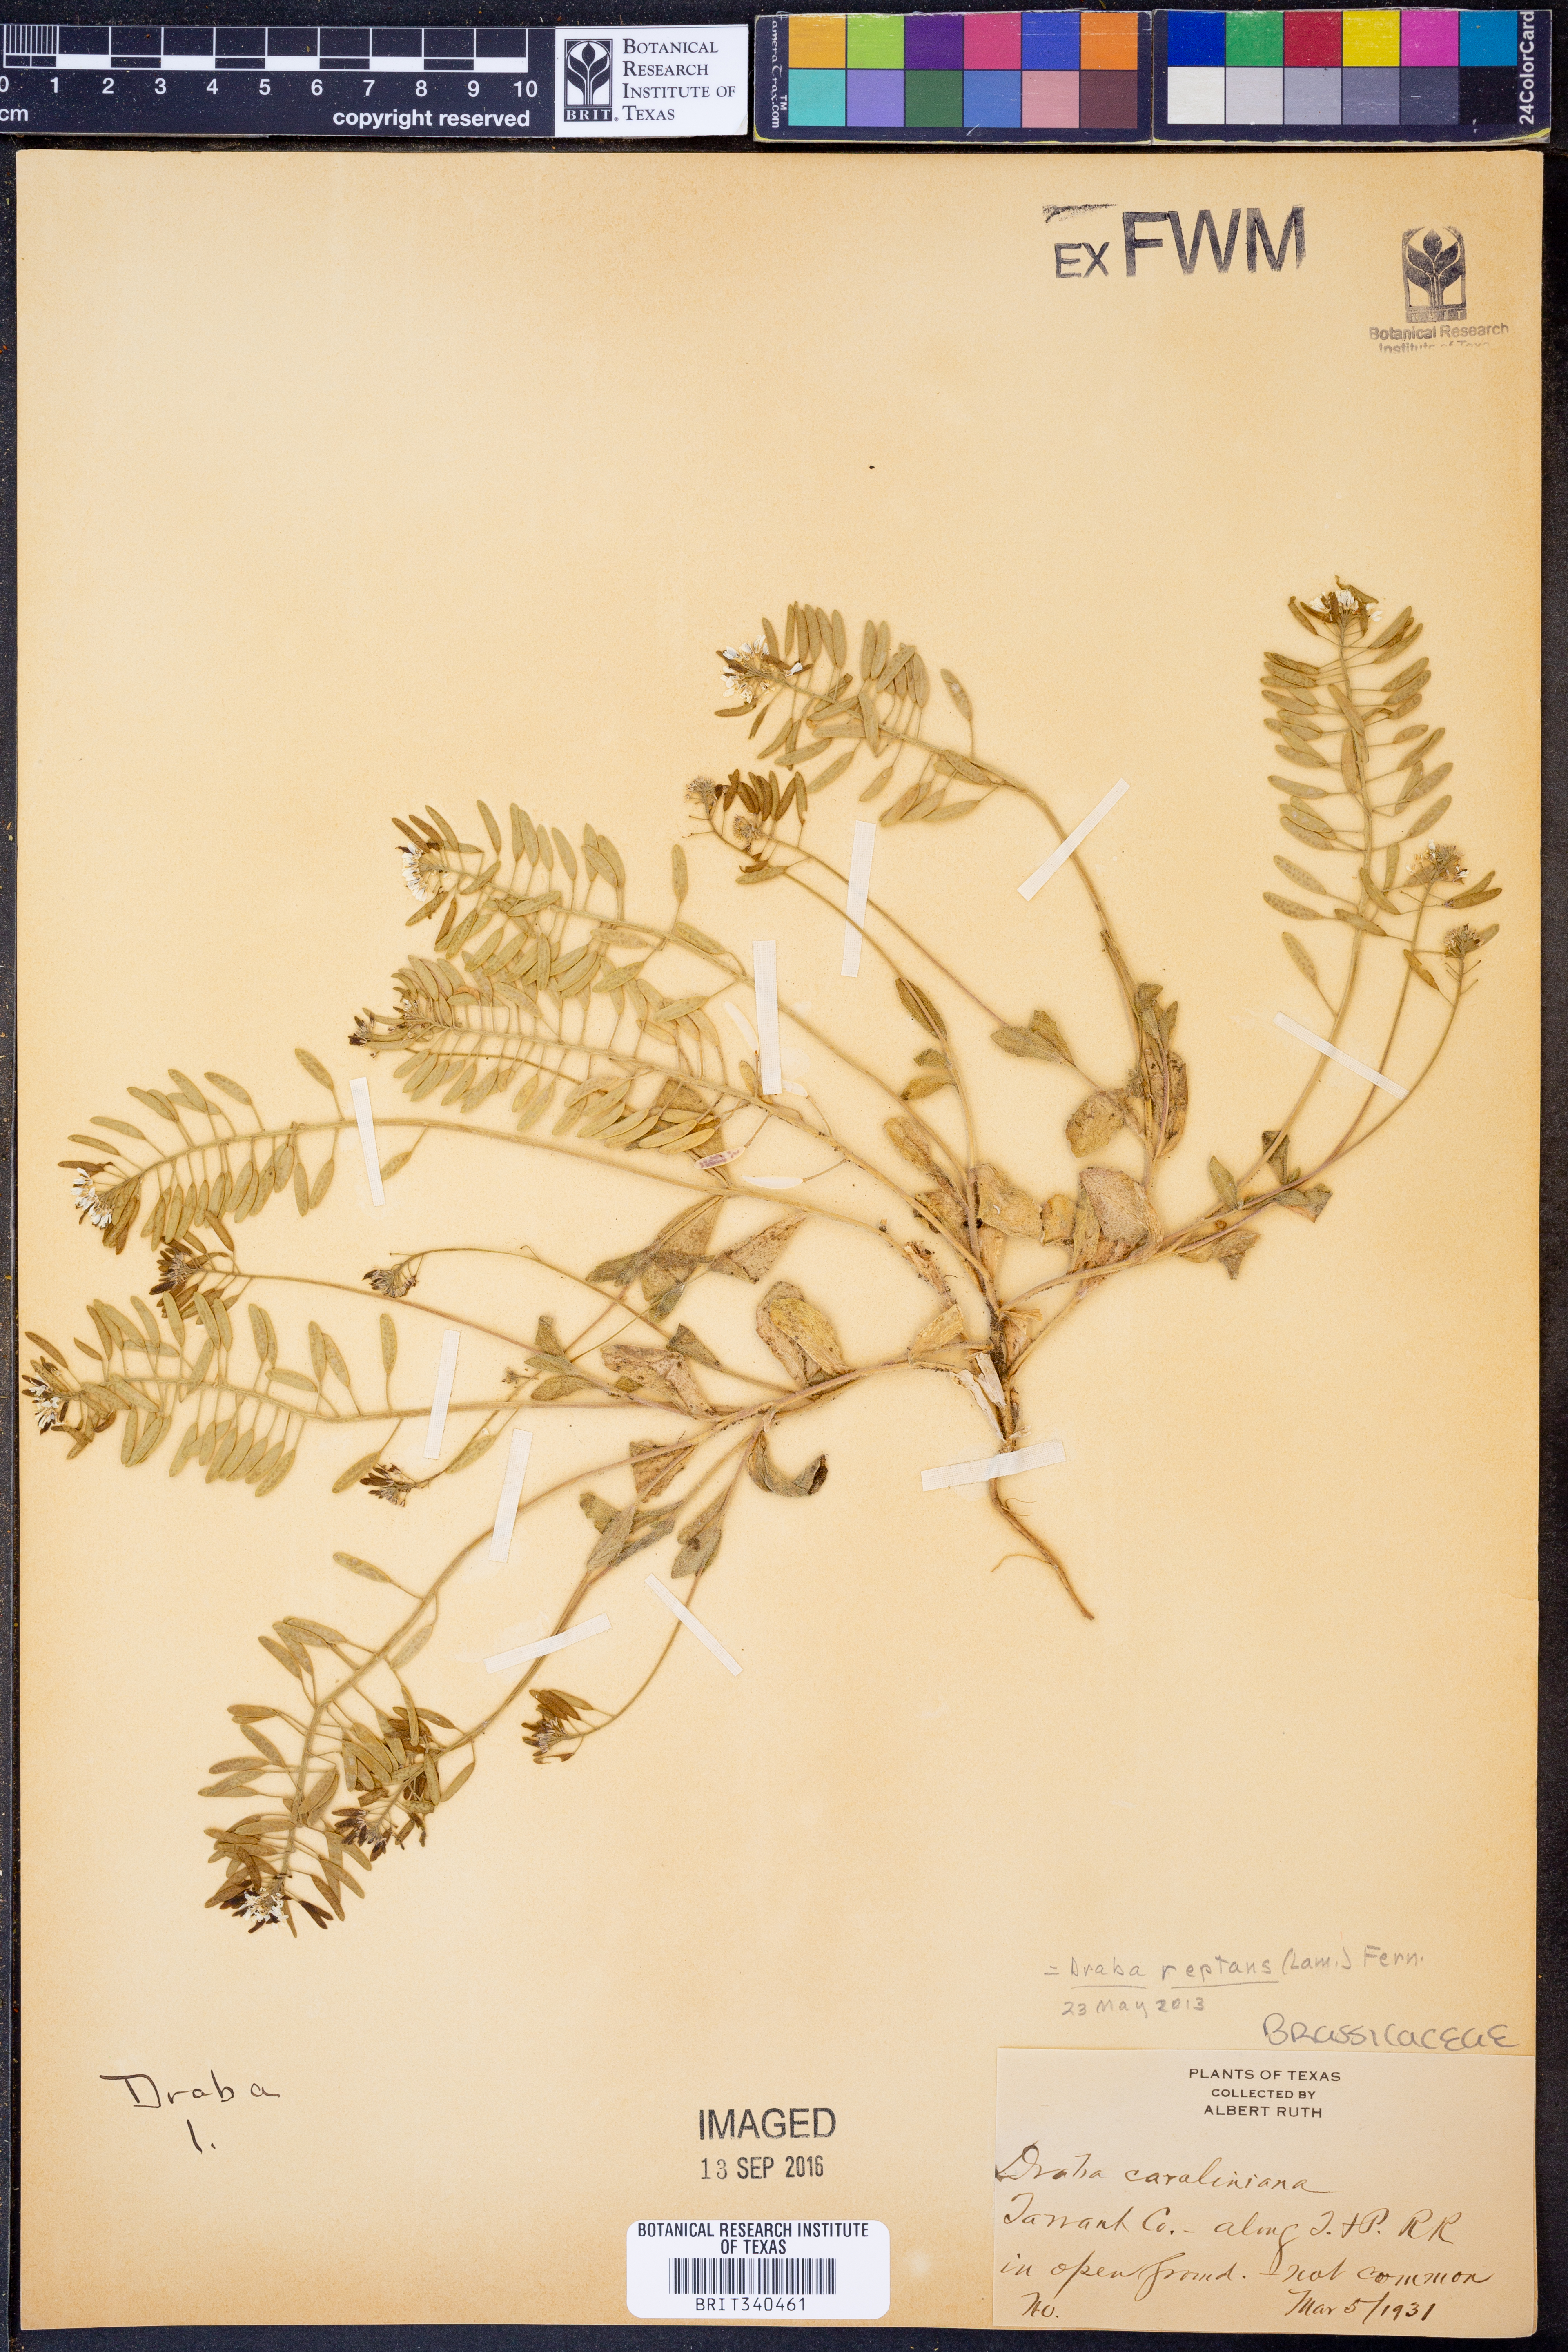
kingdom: Plantae
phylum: Tracheophyta
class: Magnoliopsida
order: Brassicales
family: Brassicaceae
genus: Tomostima
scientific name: Tomostima reptans
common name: Carolina draba
